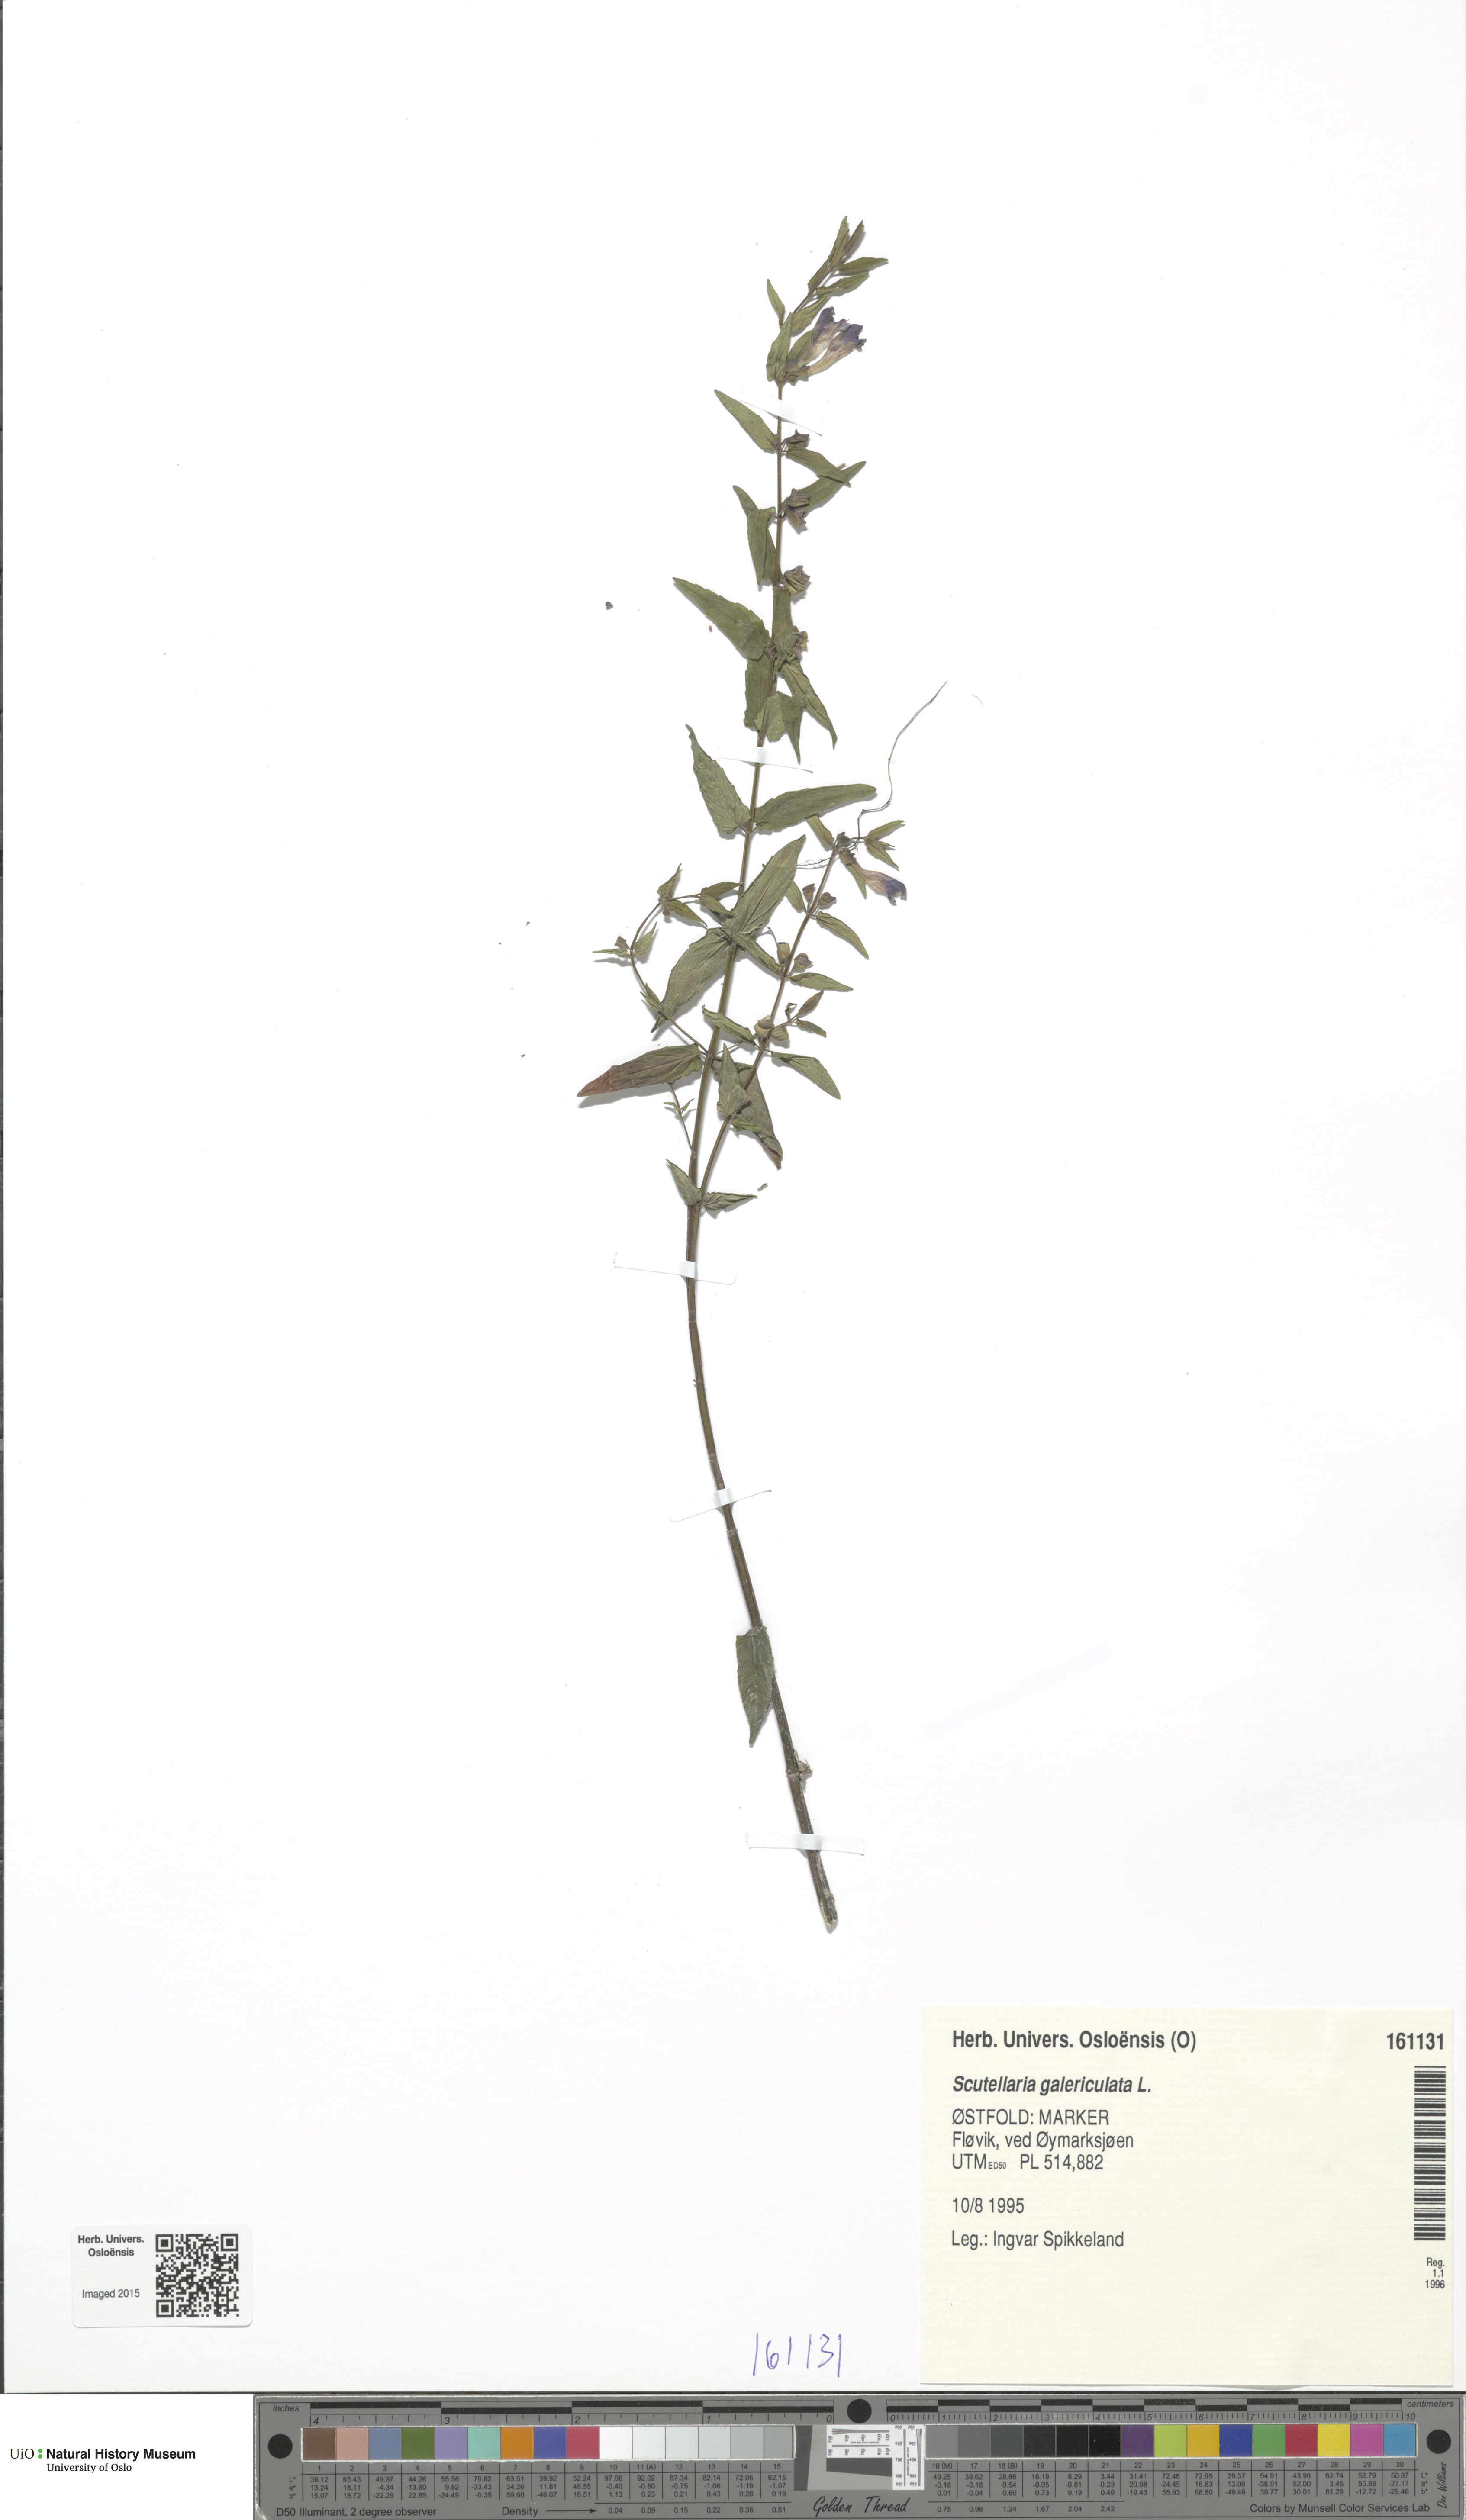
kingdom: Plantae
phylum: Tracheophyta
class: Magnoliopsida
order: Lamiales
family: Lamiaceae
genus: Scutellaria
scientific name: Scutellaria galericulata
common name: Skullcap
